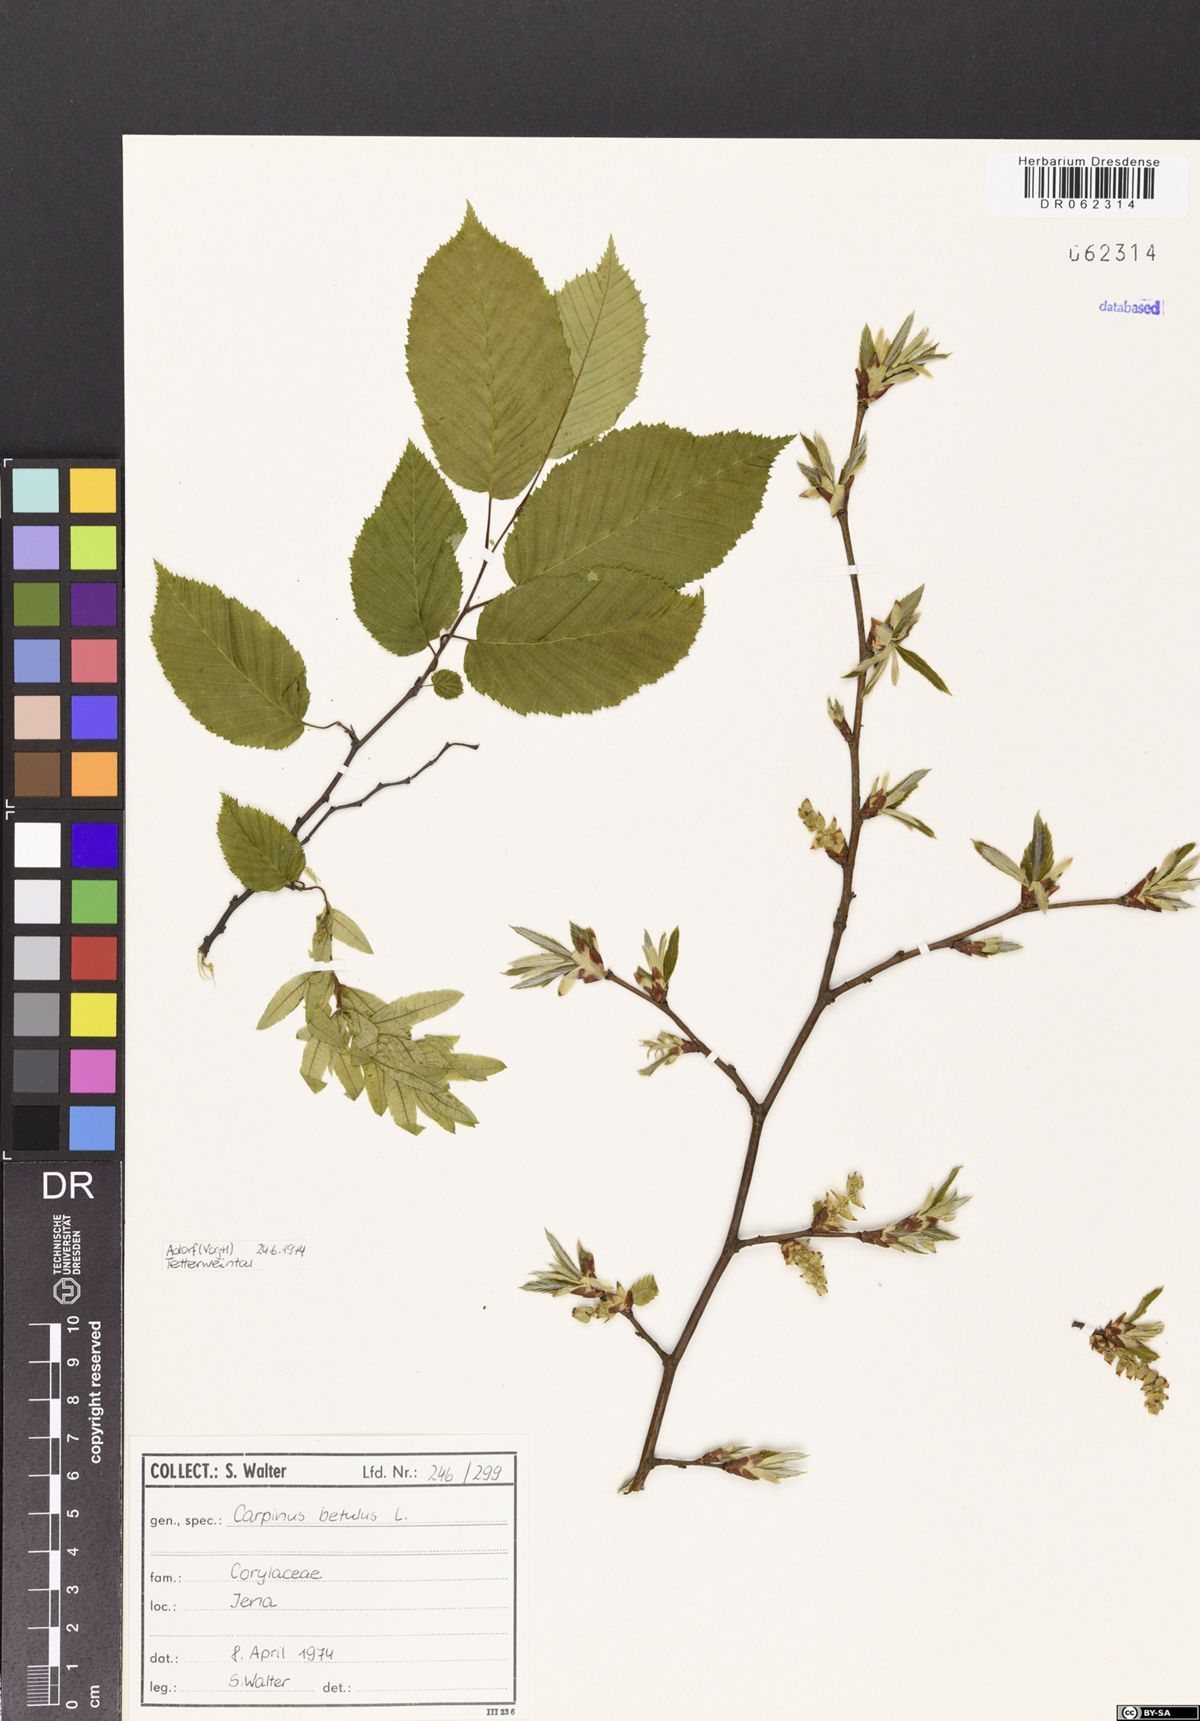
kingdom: Plantae
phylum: Tracheophyta
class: Magnoliopsida
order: Fagales
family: Betulaceae
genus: Carpinus
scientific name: Carpinus betulus
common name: Hornbeam
